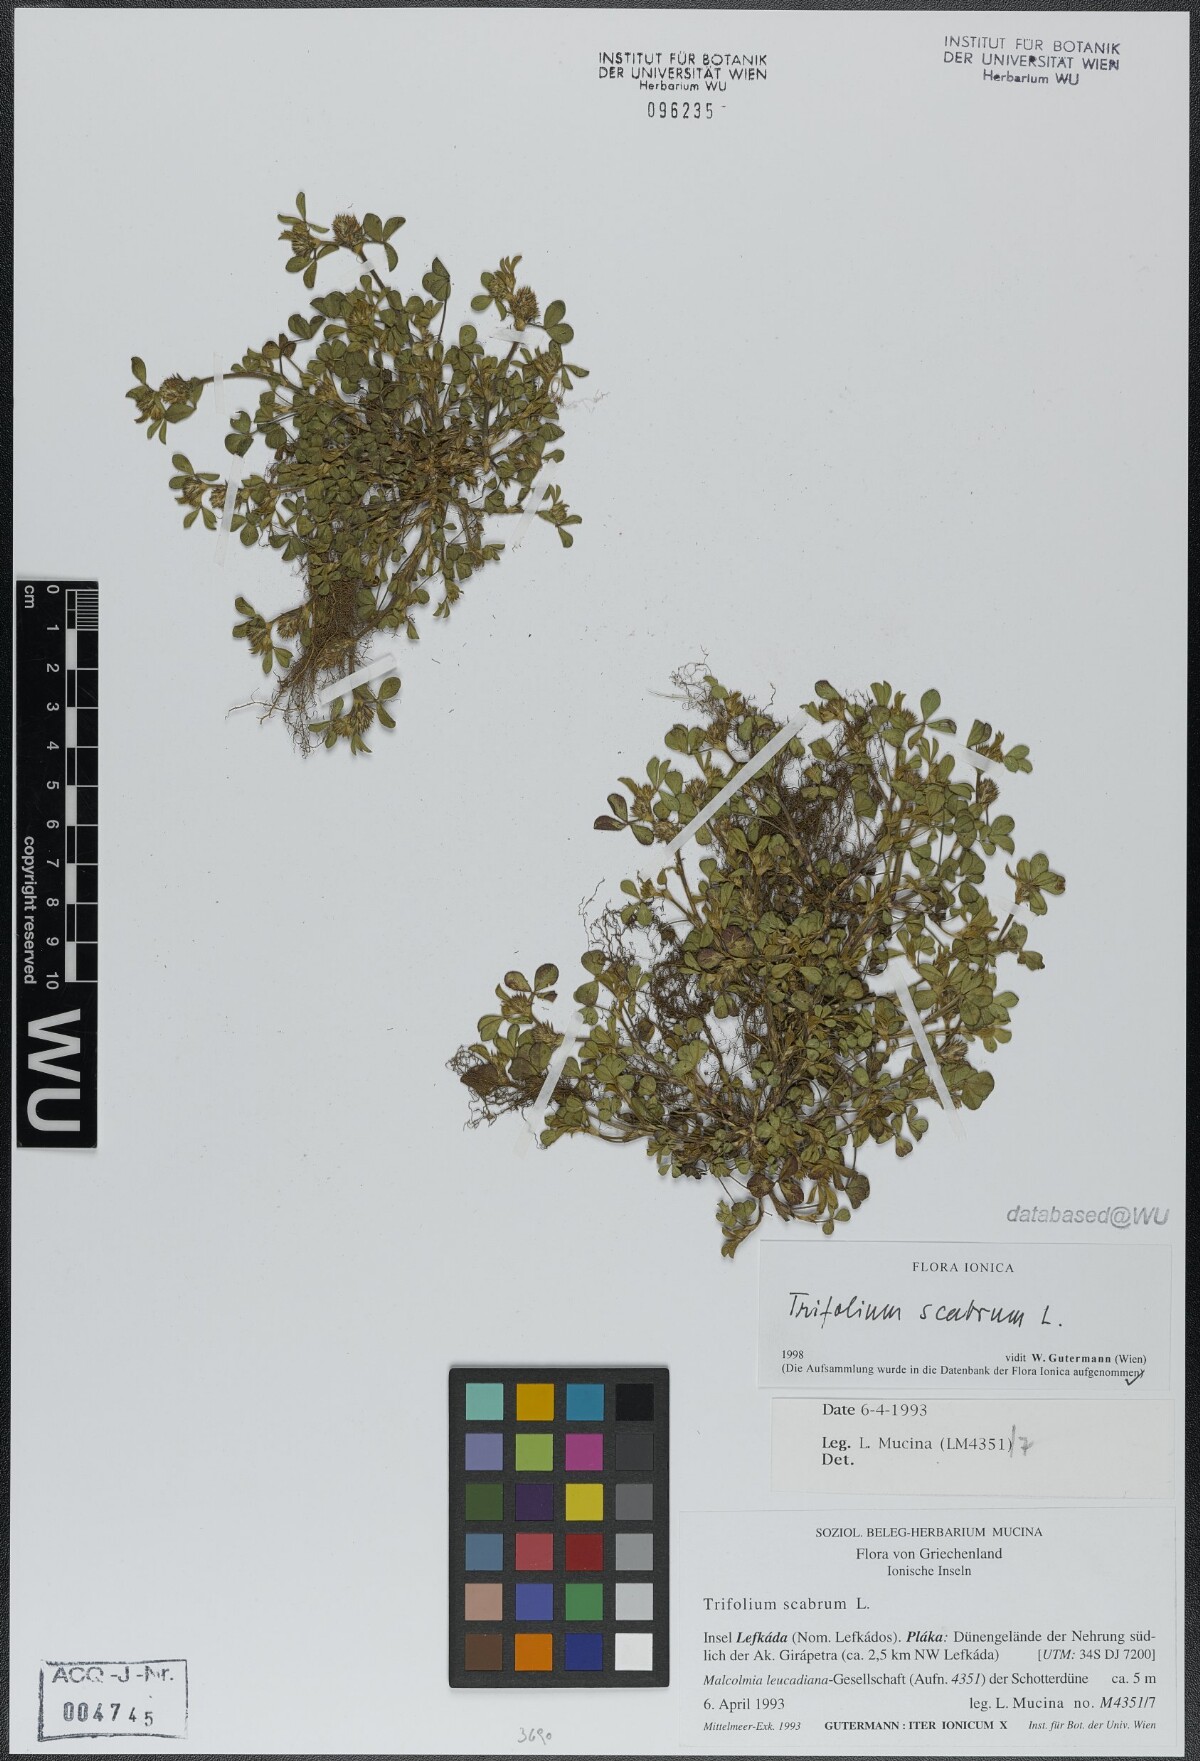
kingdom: Plantae
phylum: Tracheophyta
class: Magnoliopsida
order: Fabales
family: Fabaceae
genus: Trifolium
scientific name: Trifolium scabrum
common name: Rough clover
